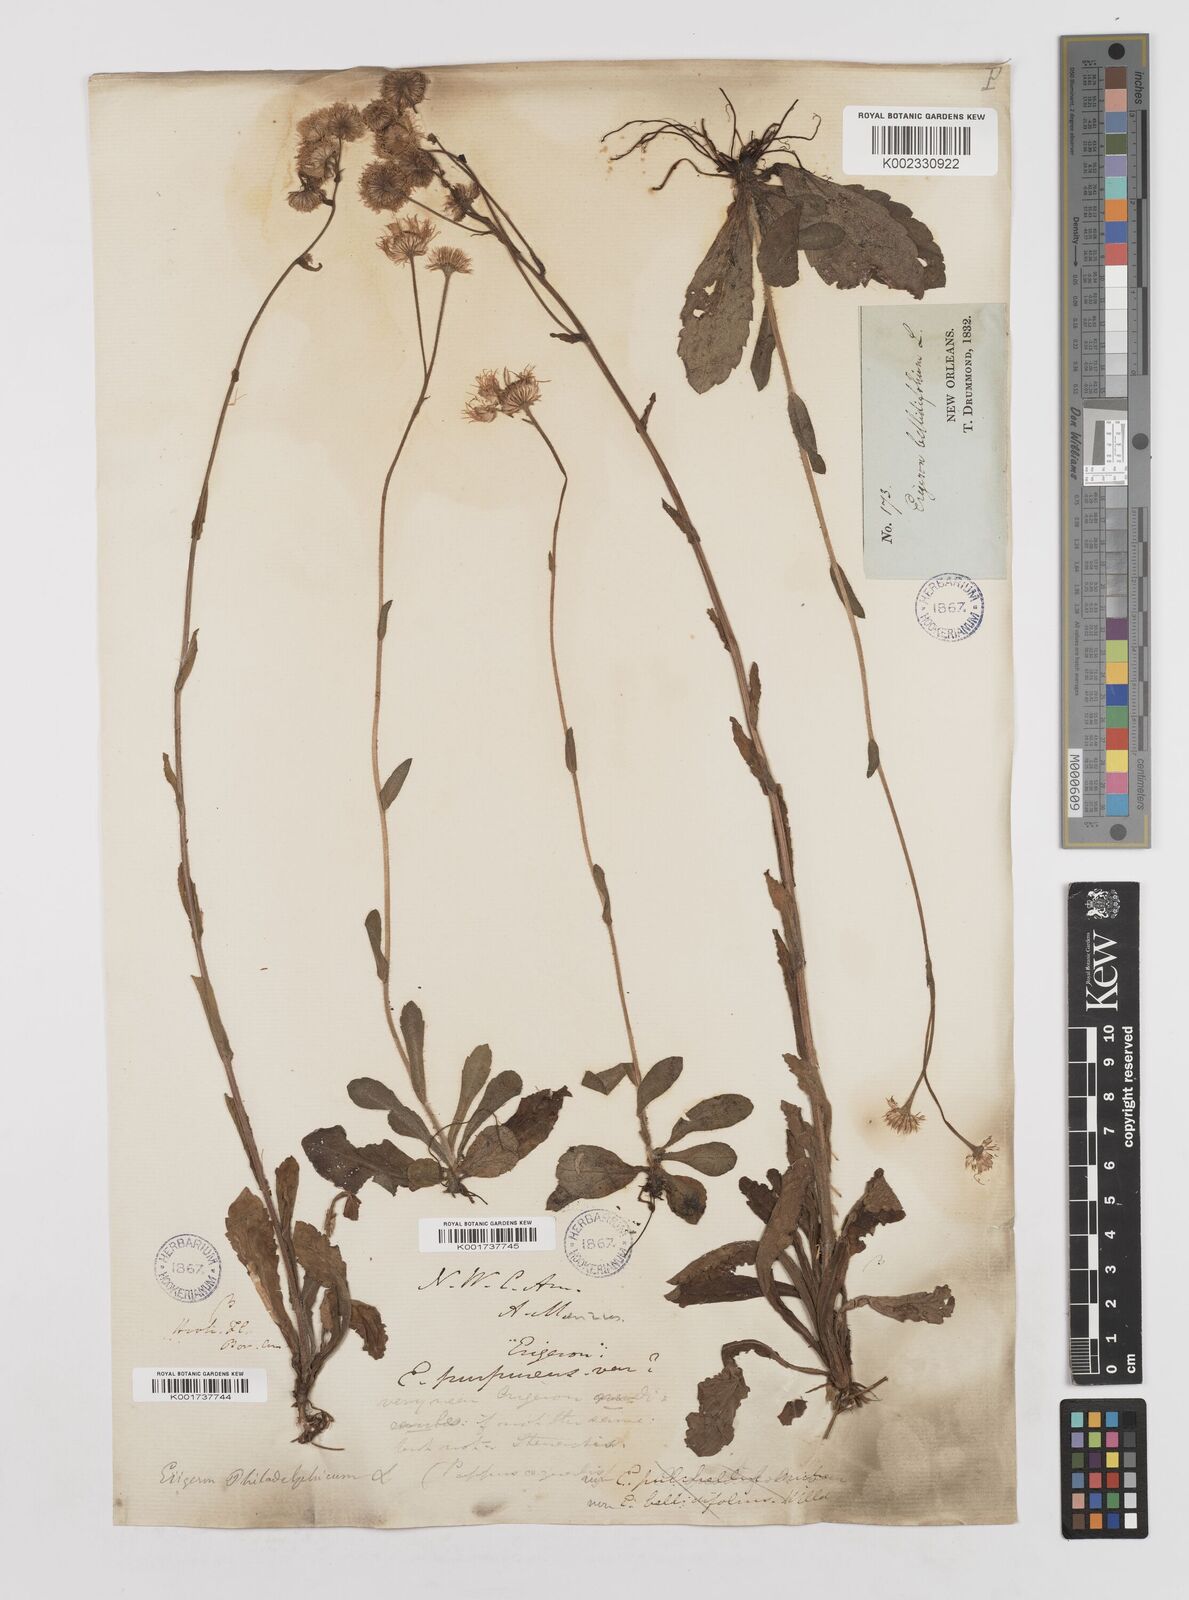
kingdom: Plantae
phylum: Tracheophyta
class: Magnoliopsida
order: Asterales
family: Asteraceae
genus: Erigeron
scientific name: Erigeron philadelphicus
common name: Robin's-plantain
